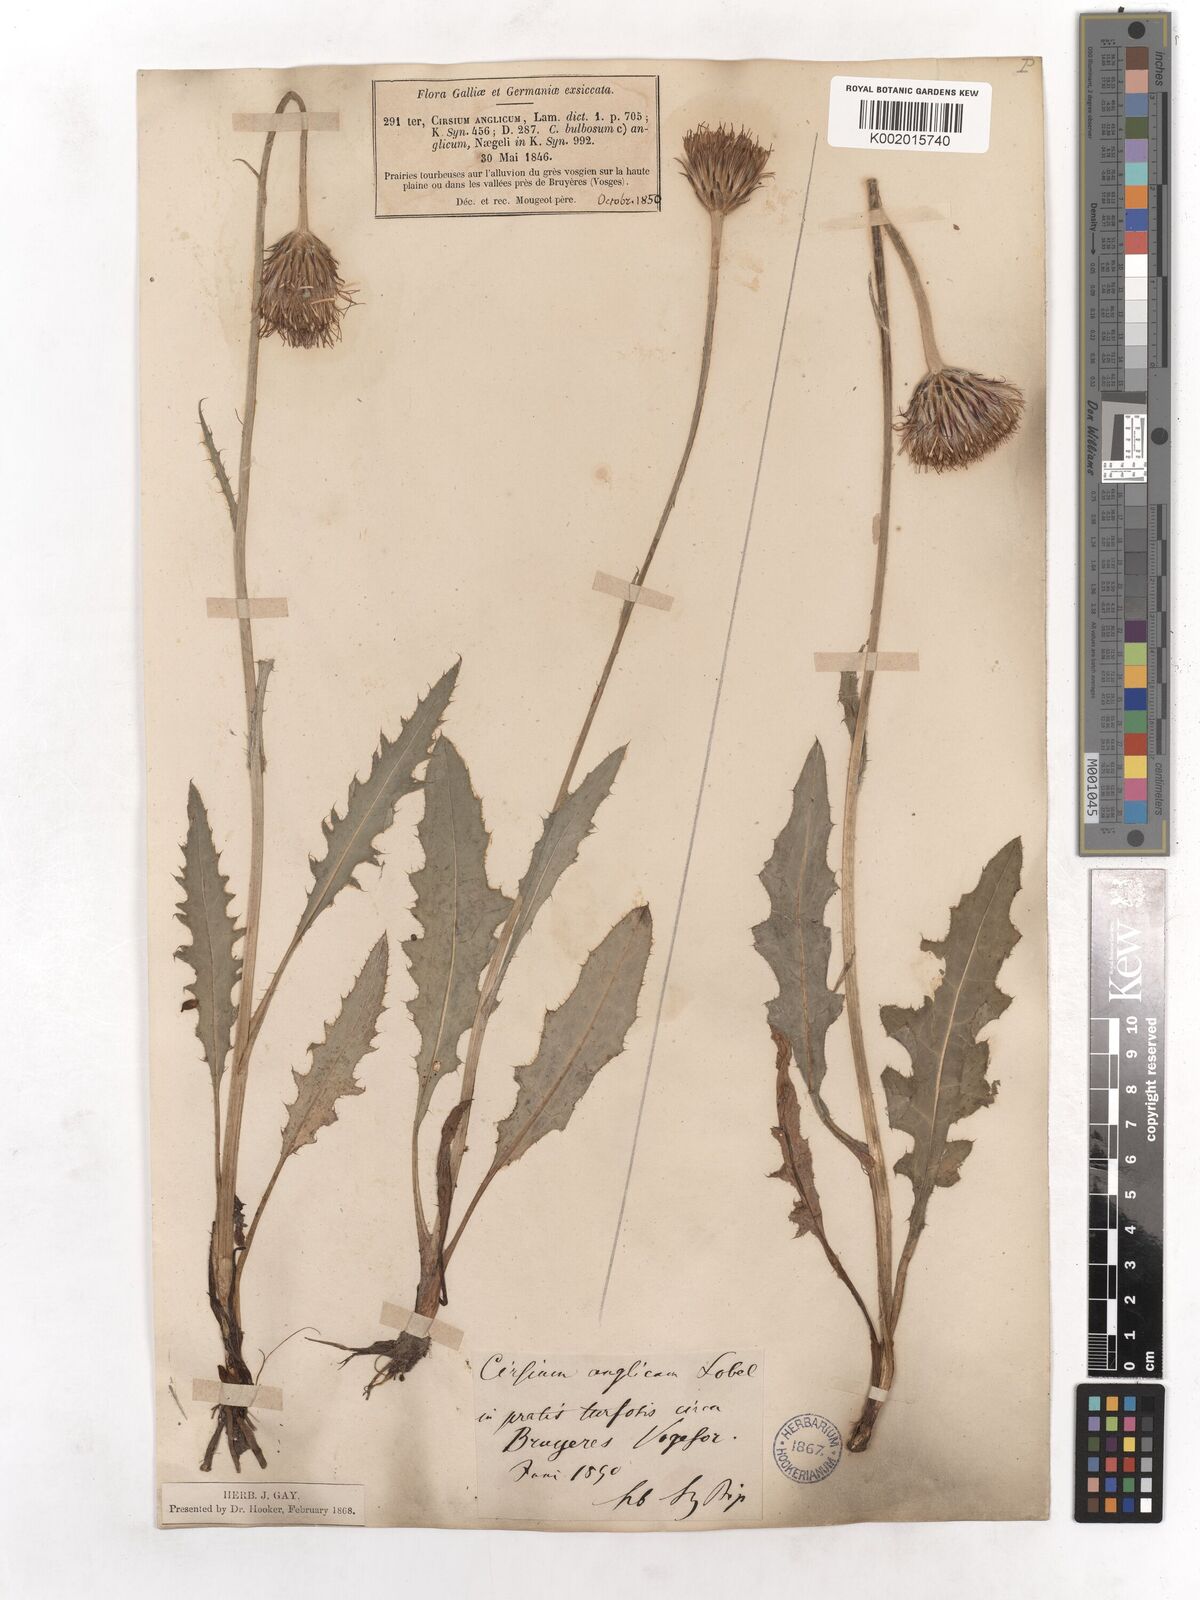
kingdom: Plantae
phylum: Tracheophyta
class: Magnoliopsida
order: Asterales
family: Asteraceae
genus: Cirsium
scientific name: Cirsium dissectum
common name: Meadow thistle
